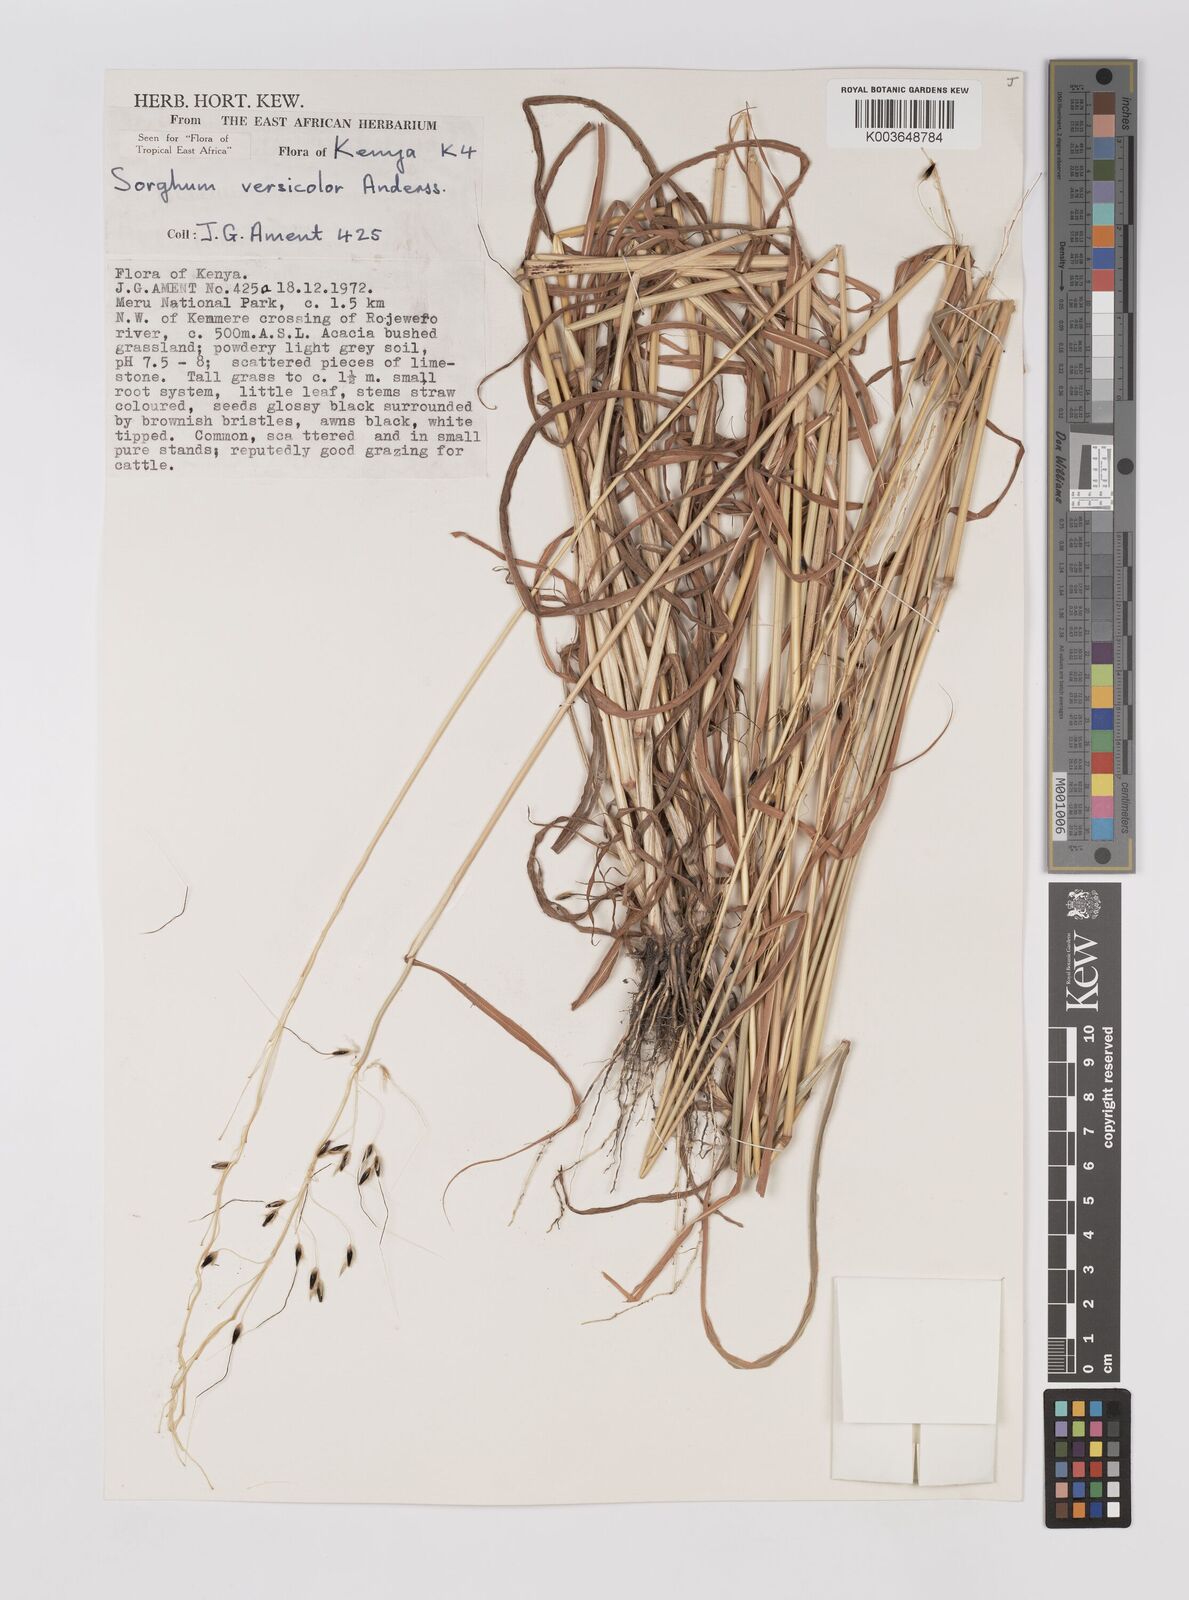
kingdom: Plantae
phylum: Tracheophyta
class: Liliopsida
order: Poales
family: Poaceae
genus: Sarga
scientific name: Sarga versicolor
